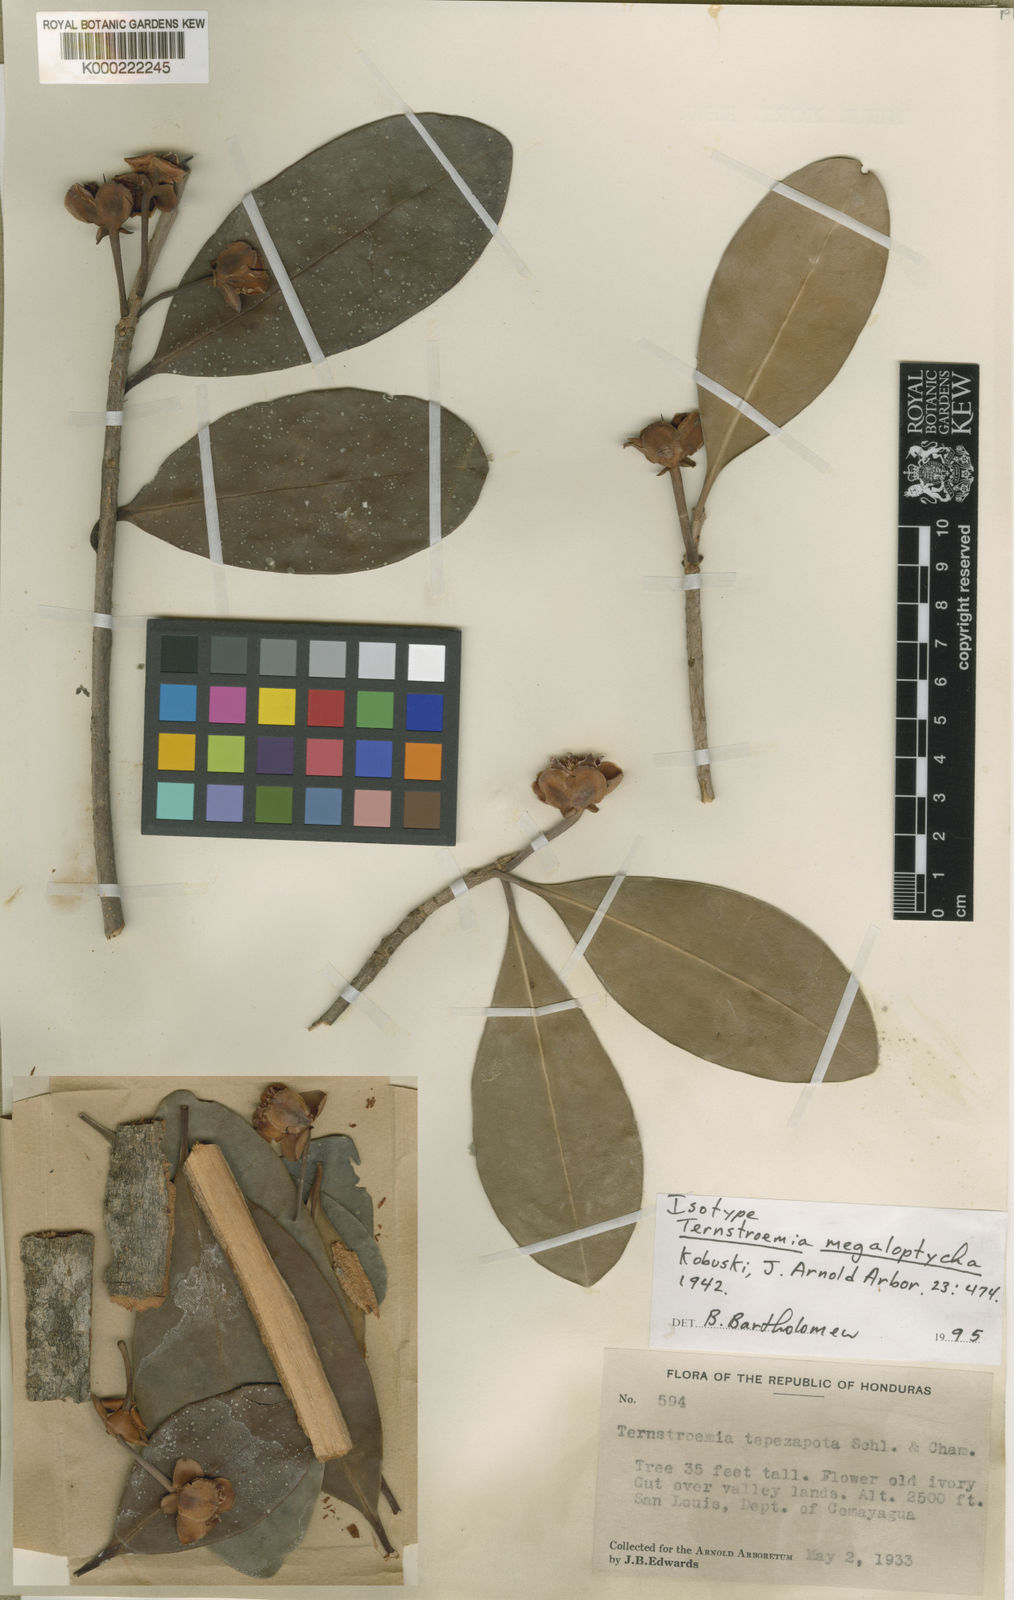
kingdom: Plantae
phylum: Tracheophyta
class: Magnoliopsida
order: Ericales
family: Pentaphylacaceae
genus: Ternstroemia
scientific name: Ternstroemia tepezapote
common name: Copey vera
